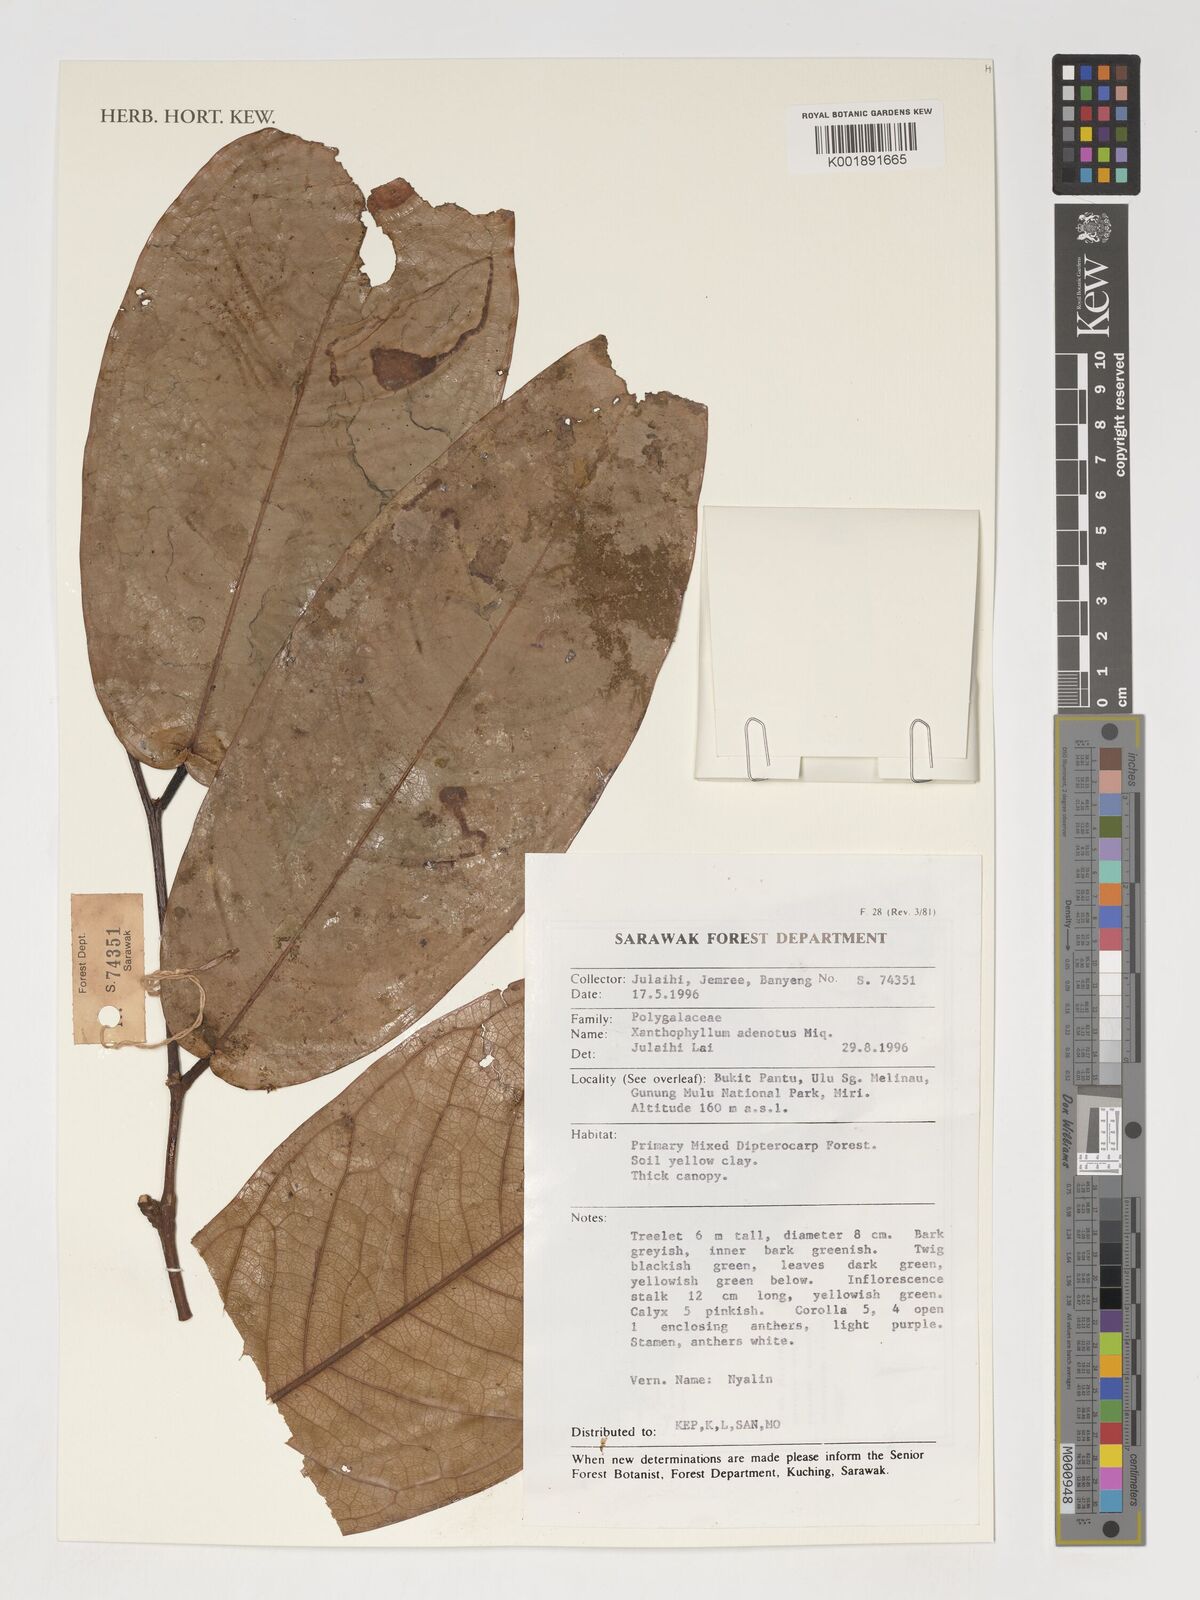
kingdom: Plantae
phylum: Tracheophyta
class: Magnoliopsida
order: Fabales
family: Polygalaceae
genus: Xanthophyllum
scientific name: Xanthophyllum adenotus
